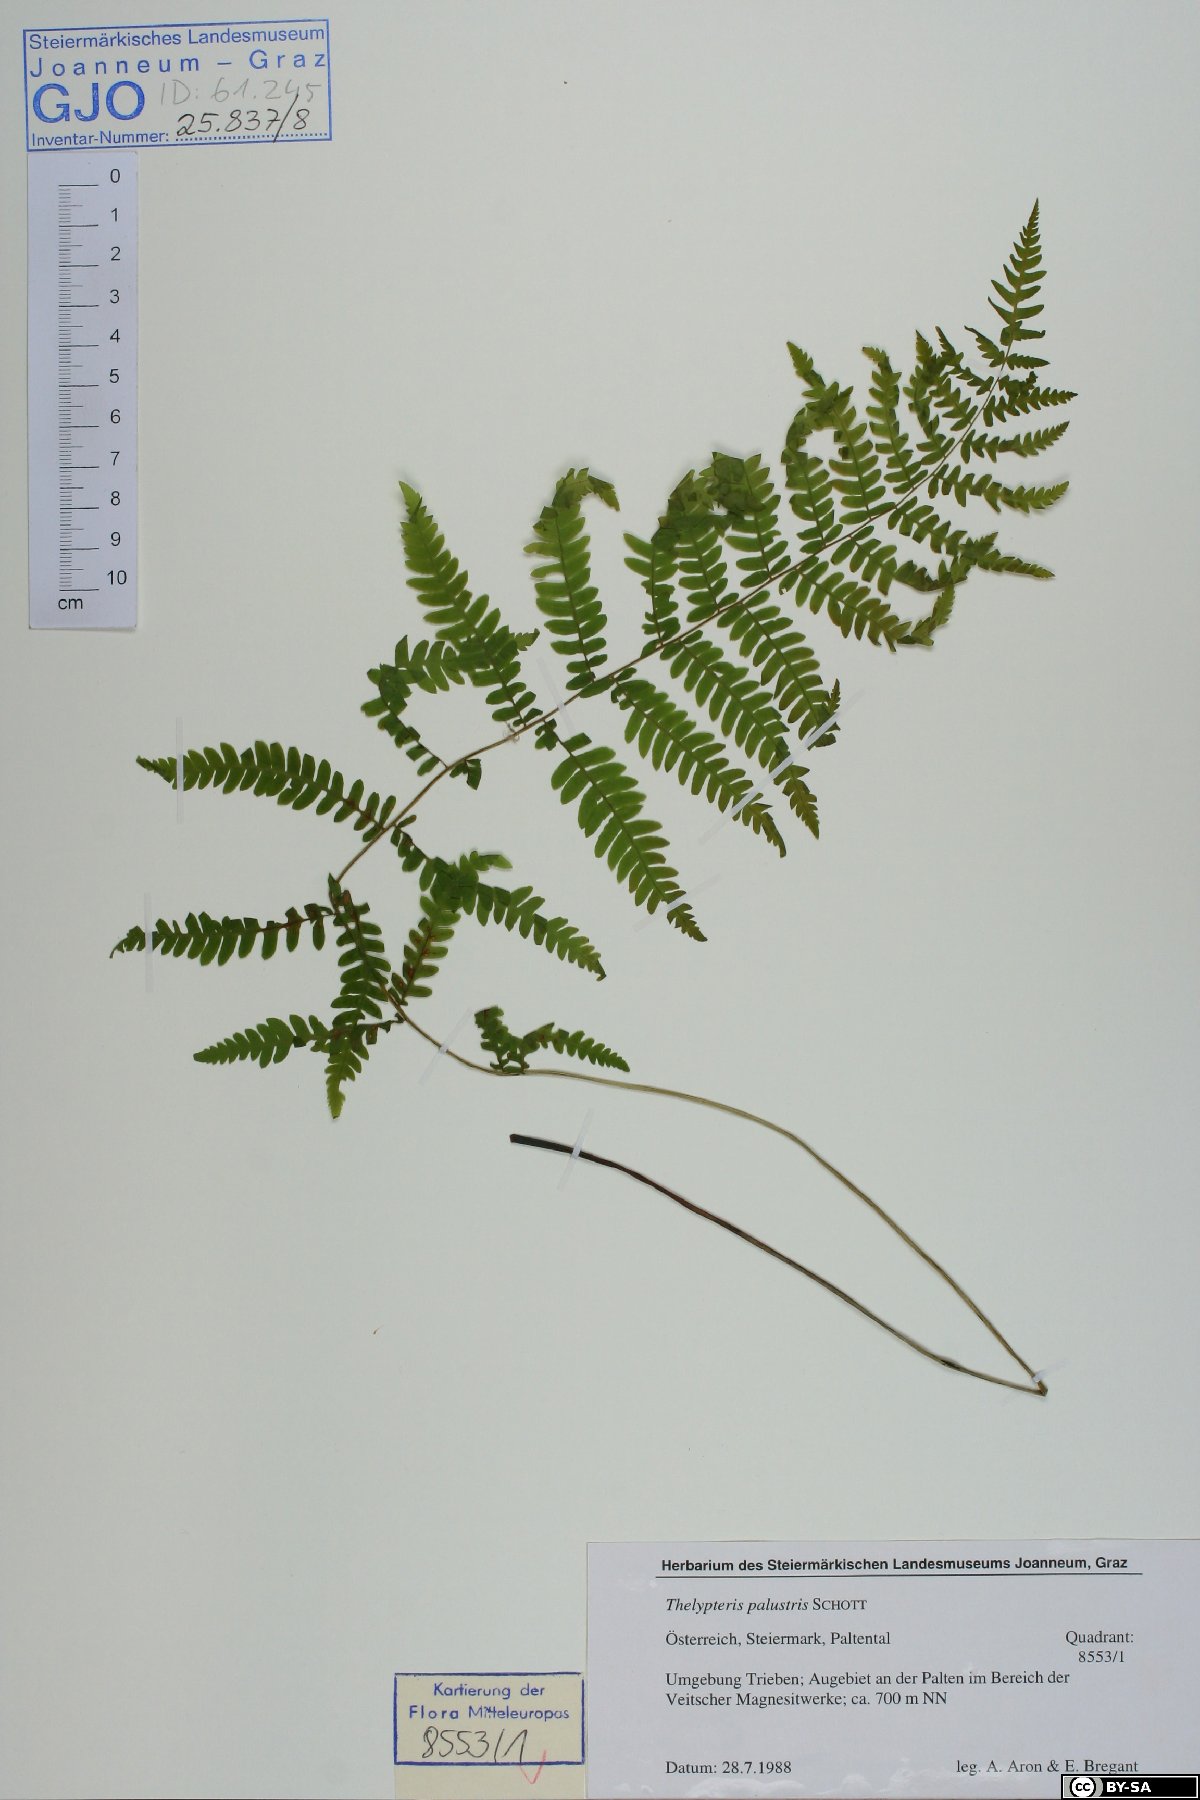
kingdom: Plantae
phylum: Tracheophyta
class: Polypodiopsida
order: Polypodiales
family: Thelypteridaceae
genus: Thelypteris
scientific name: Thelypteris palustris
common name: Marsh fern
